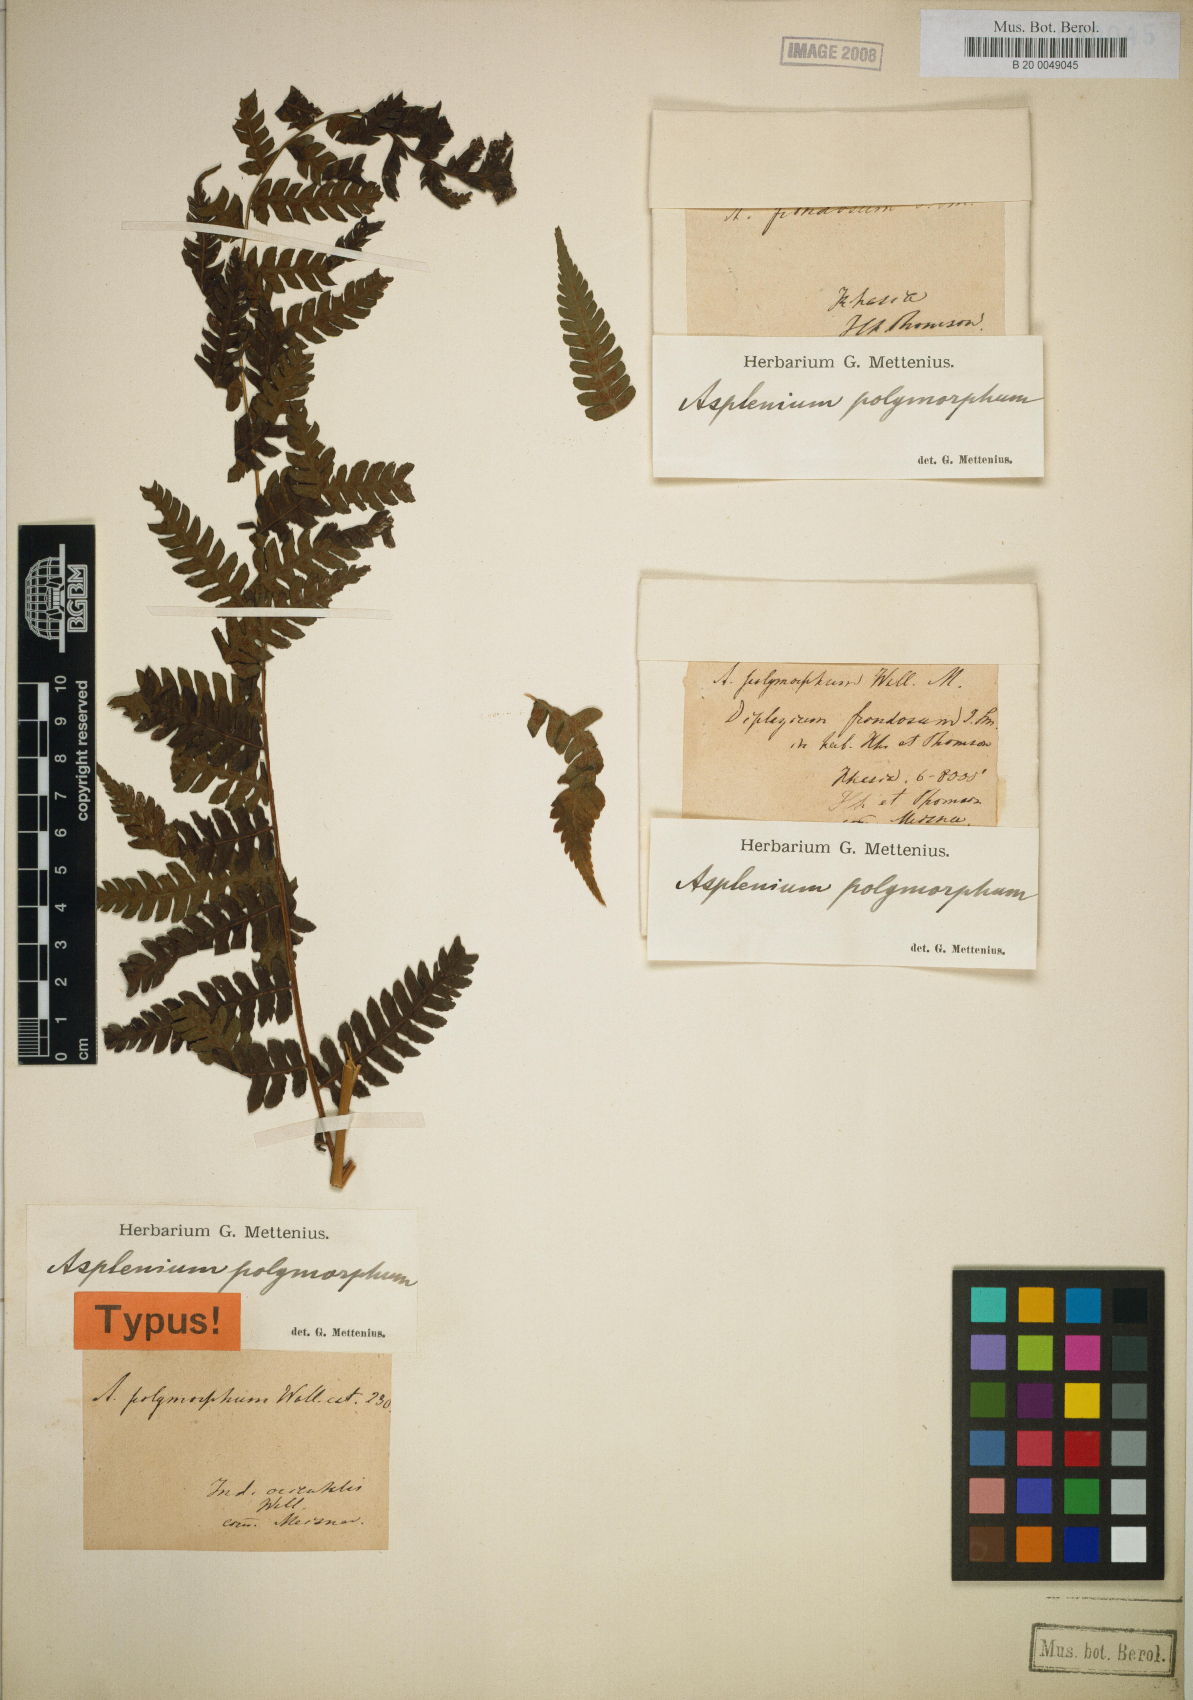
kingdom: Plantae
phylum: Tracheophyta
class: Polypodiopsida
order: Polypodiales
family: Athyriaceae
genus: Diplazium
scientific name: Diplazium maximum
